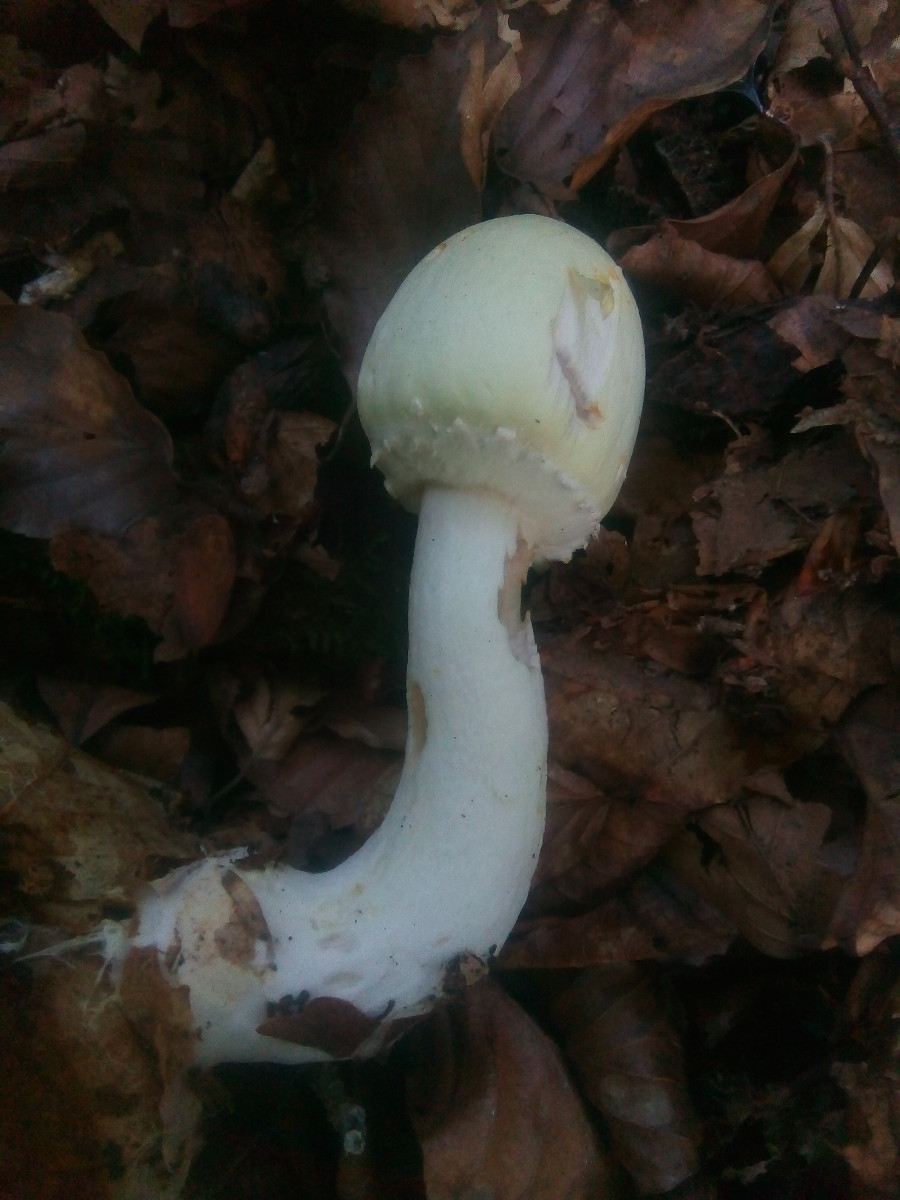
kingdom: Fungi
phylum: Basidiomycota
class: Agaricomycetes
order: Agaricales
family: Agaricaceae
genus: Agaricus
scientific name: Agaricus sylvicola
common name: gulhvid champignon
